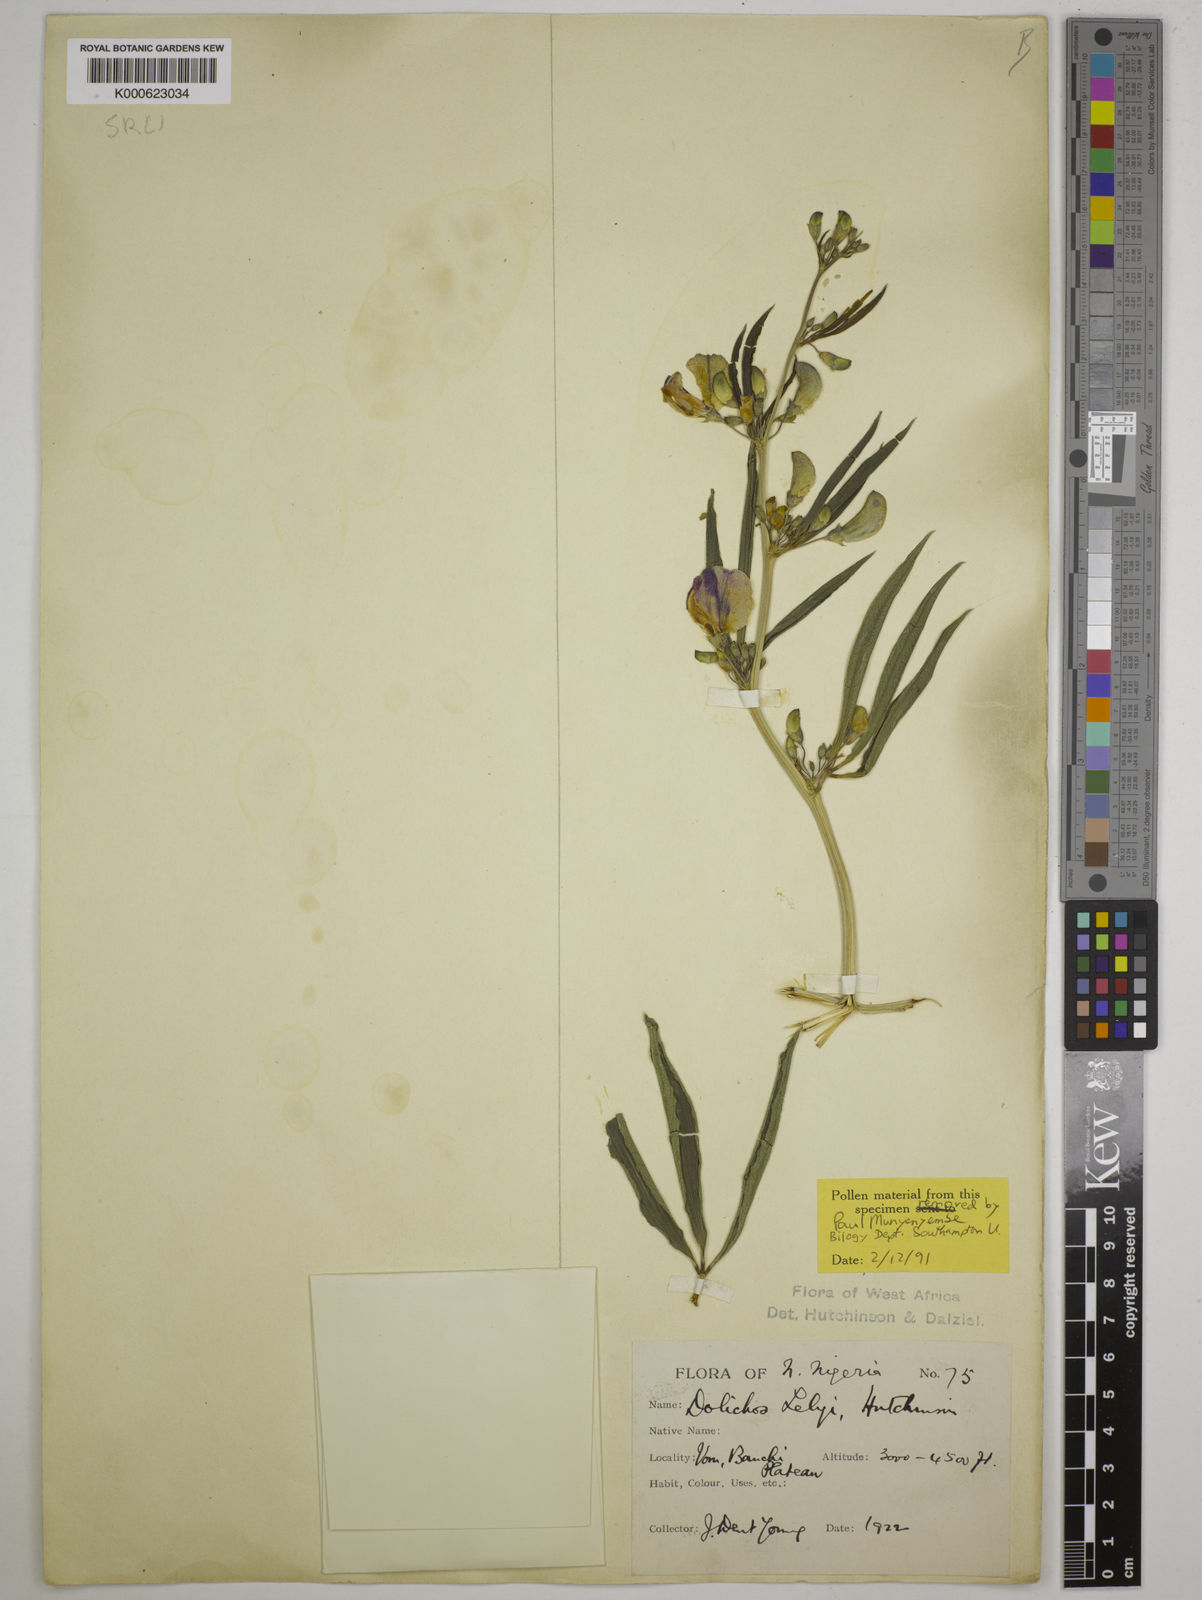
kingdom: Plantae
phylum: Tracheophyta
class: Magnoliopsida
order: Fabales
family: Fabaceae
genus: Dolichos
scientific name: Dolichos schweinfurthii
